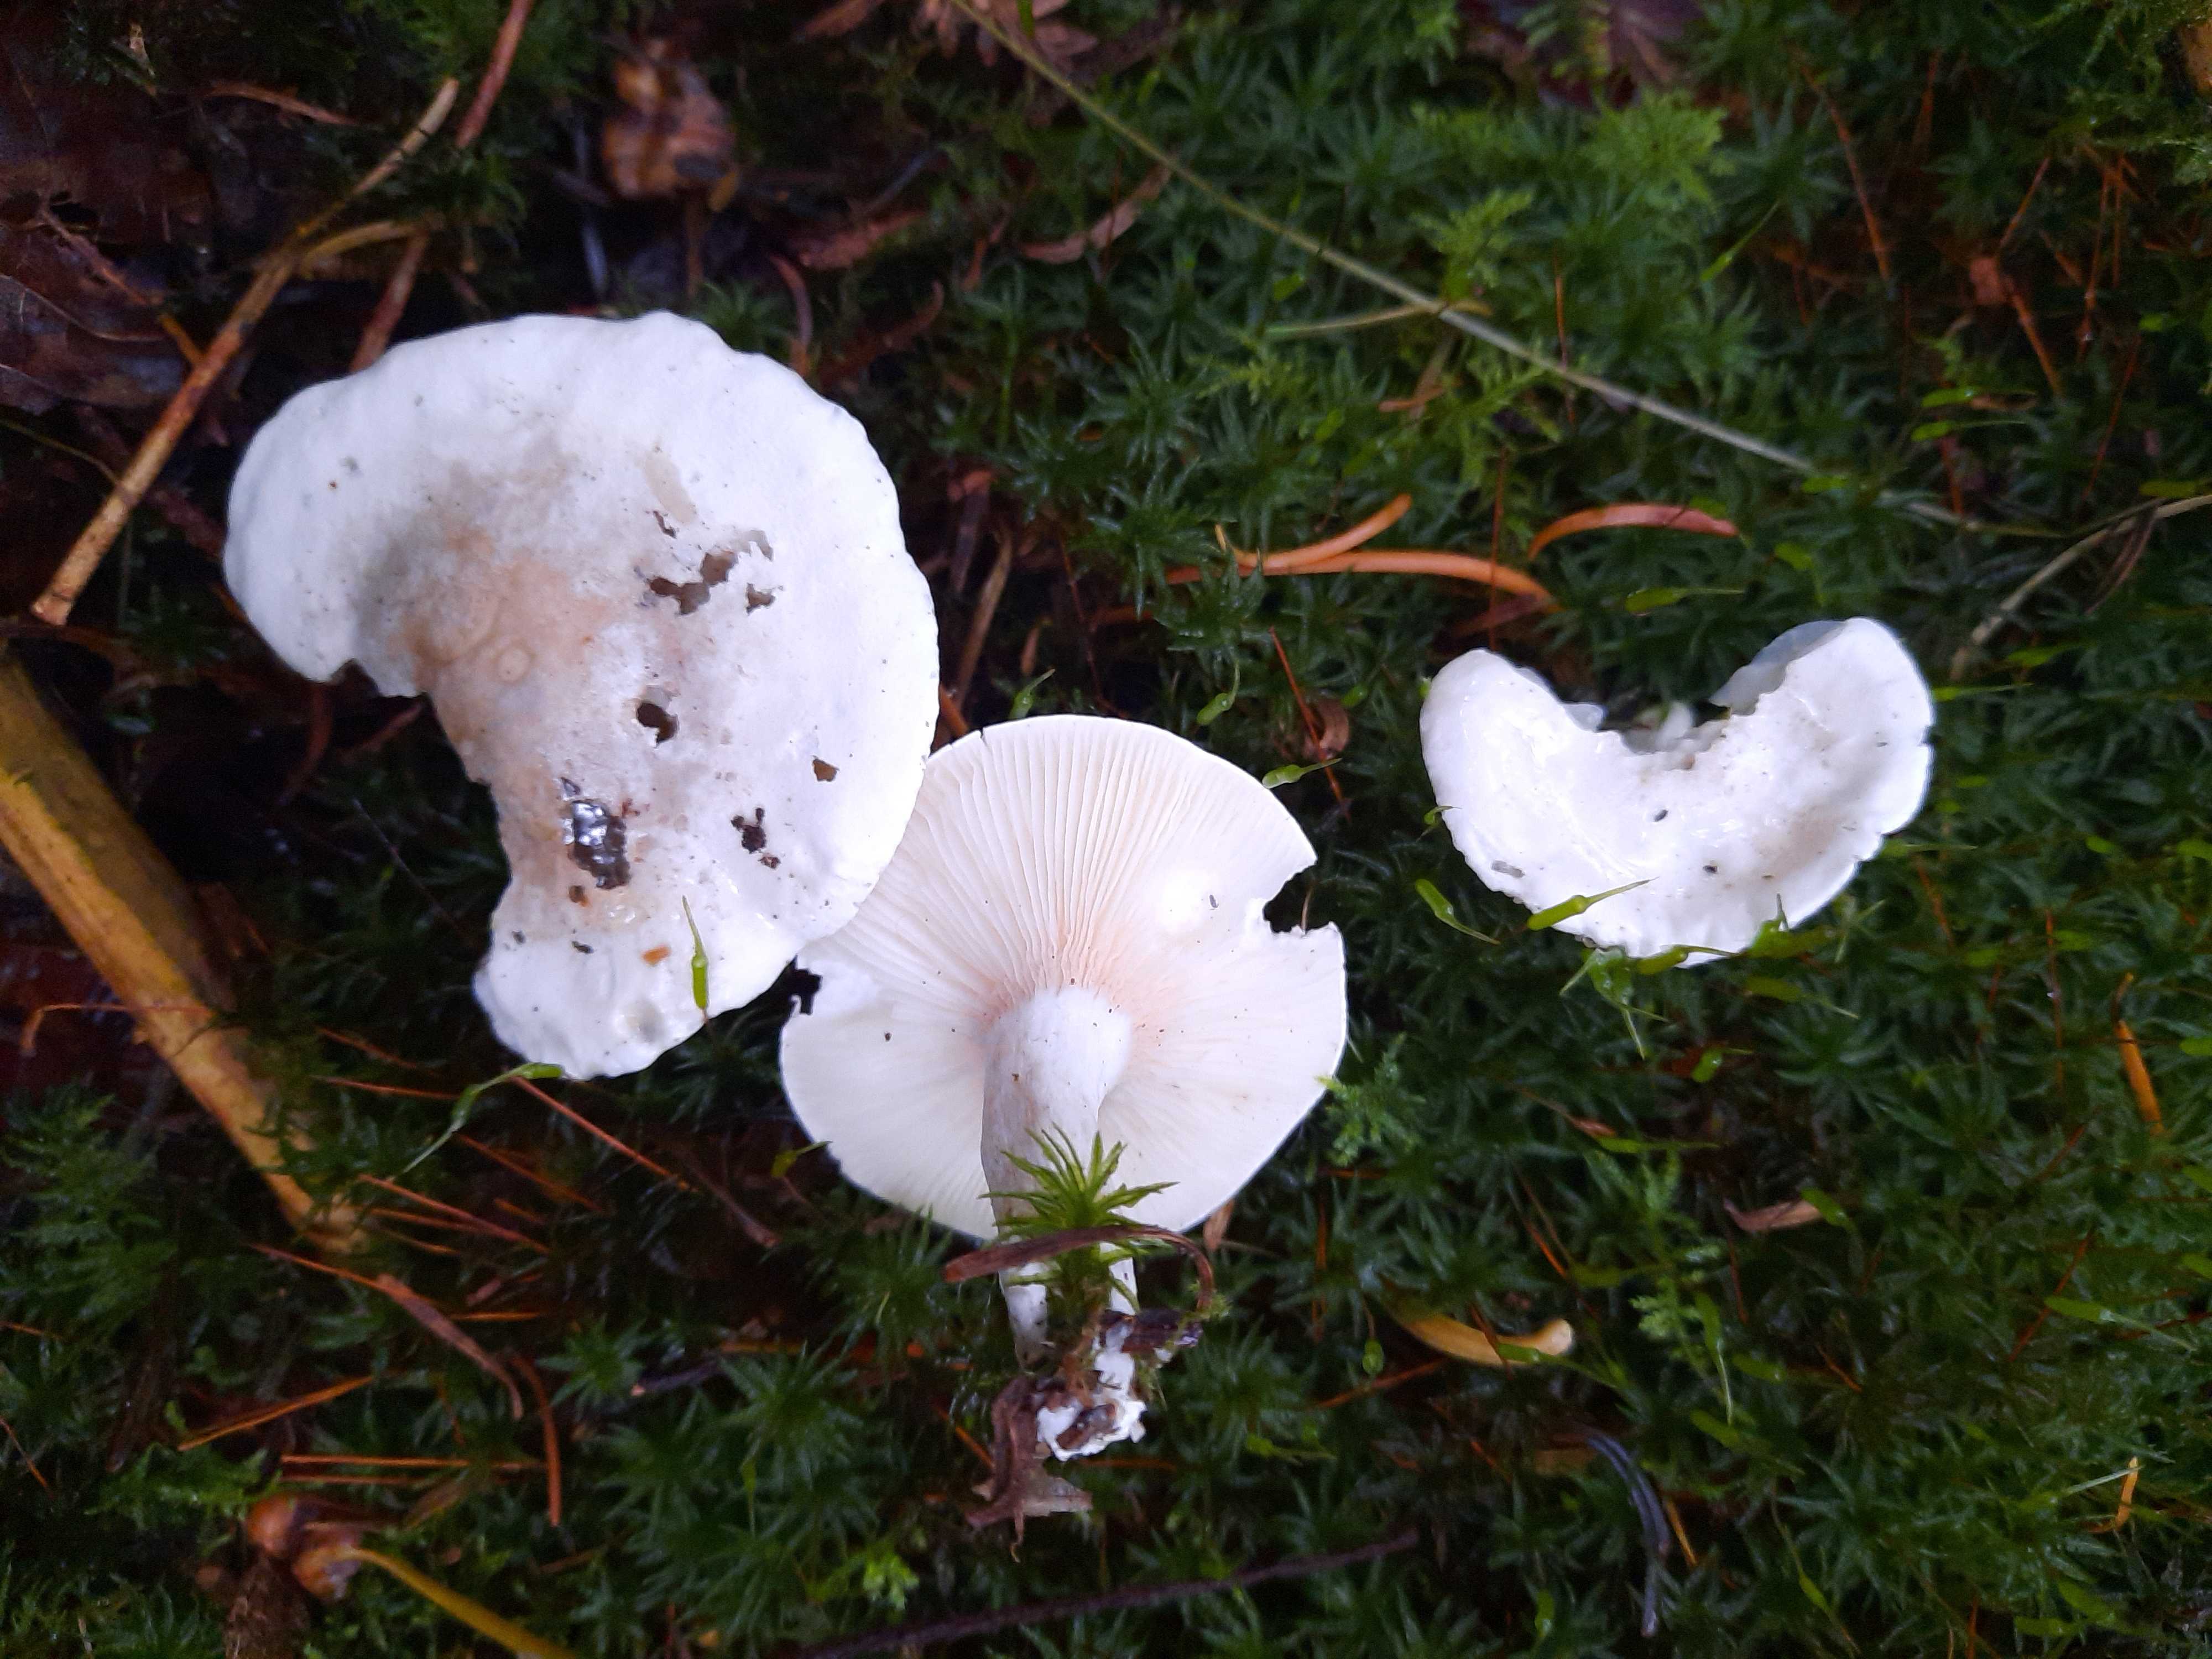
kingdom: Fungi
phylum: Basidiomycota
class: Agaricomycetes
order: Agaricales
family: Entolomataceae
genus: Clitopilus
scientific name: Clitopilus prunulus
